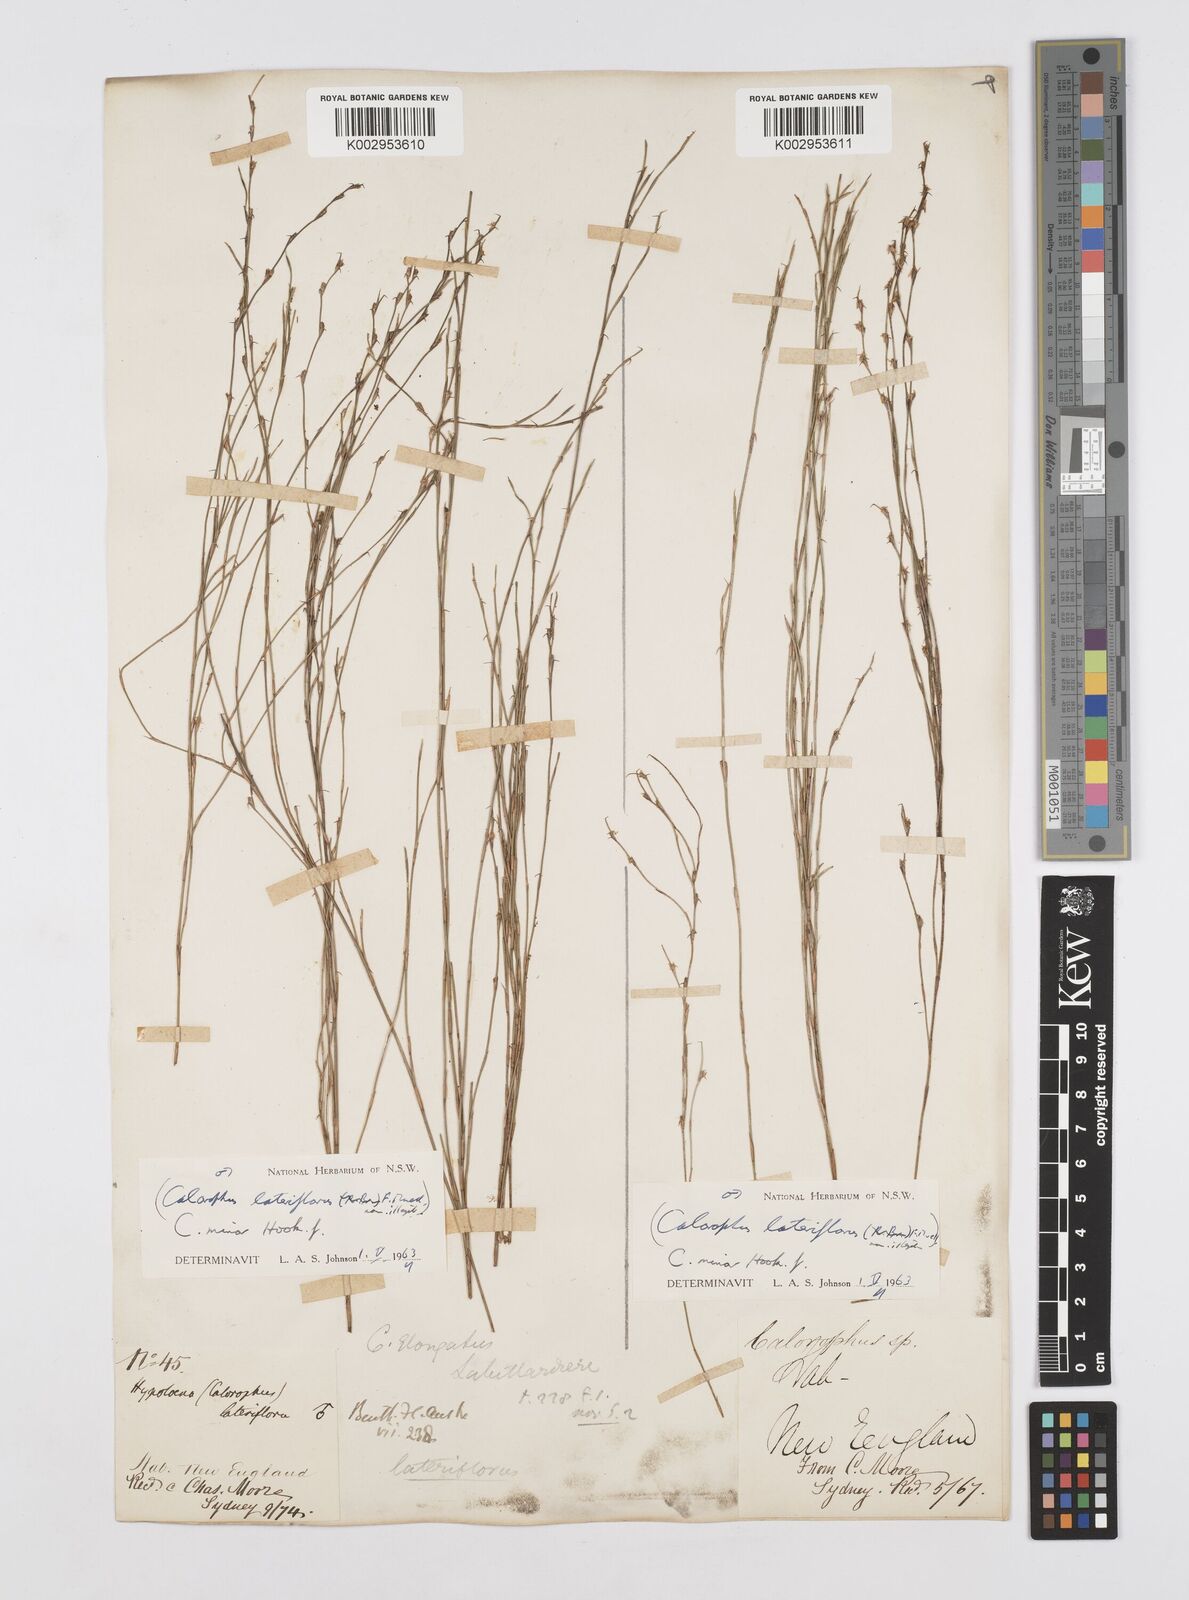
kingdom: Plantae
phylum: Tracheophyta
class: Liliopsida
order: Poales
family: Restionaceae
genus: Empodisma
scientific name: Empodisma minus
